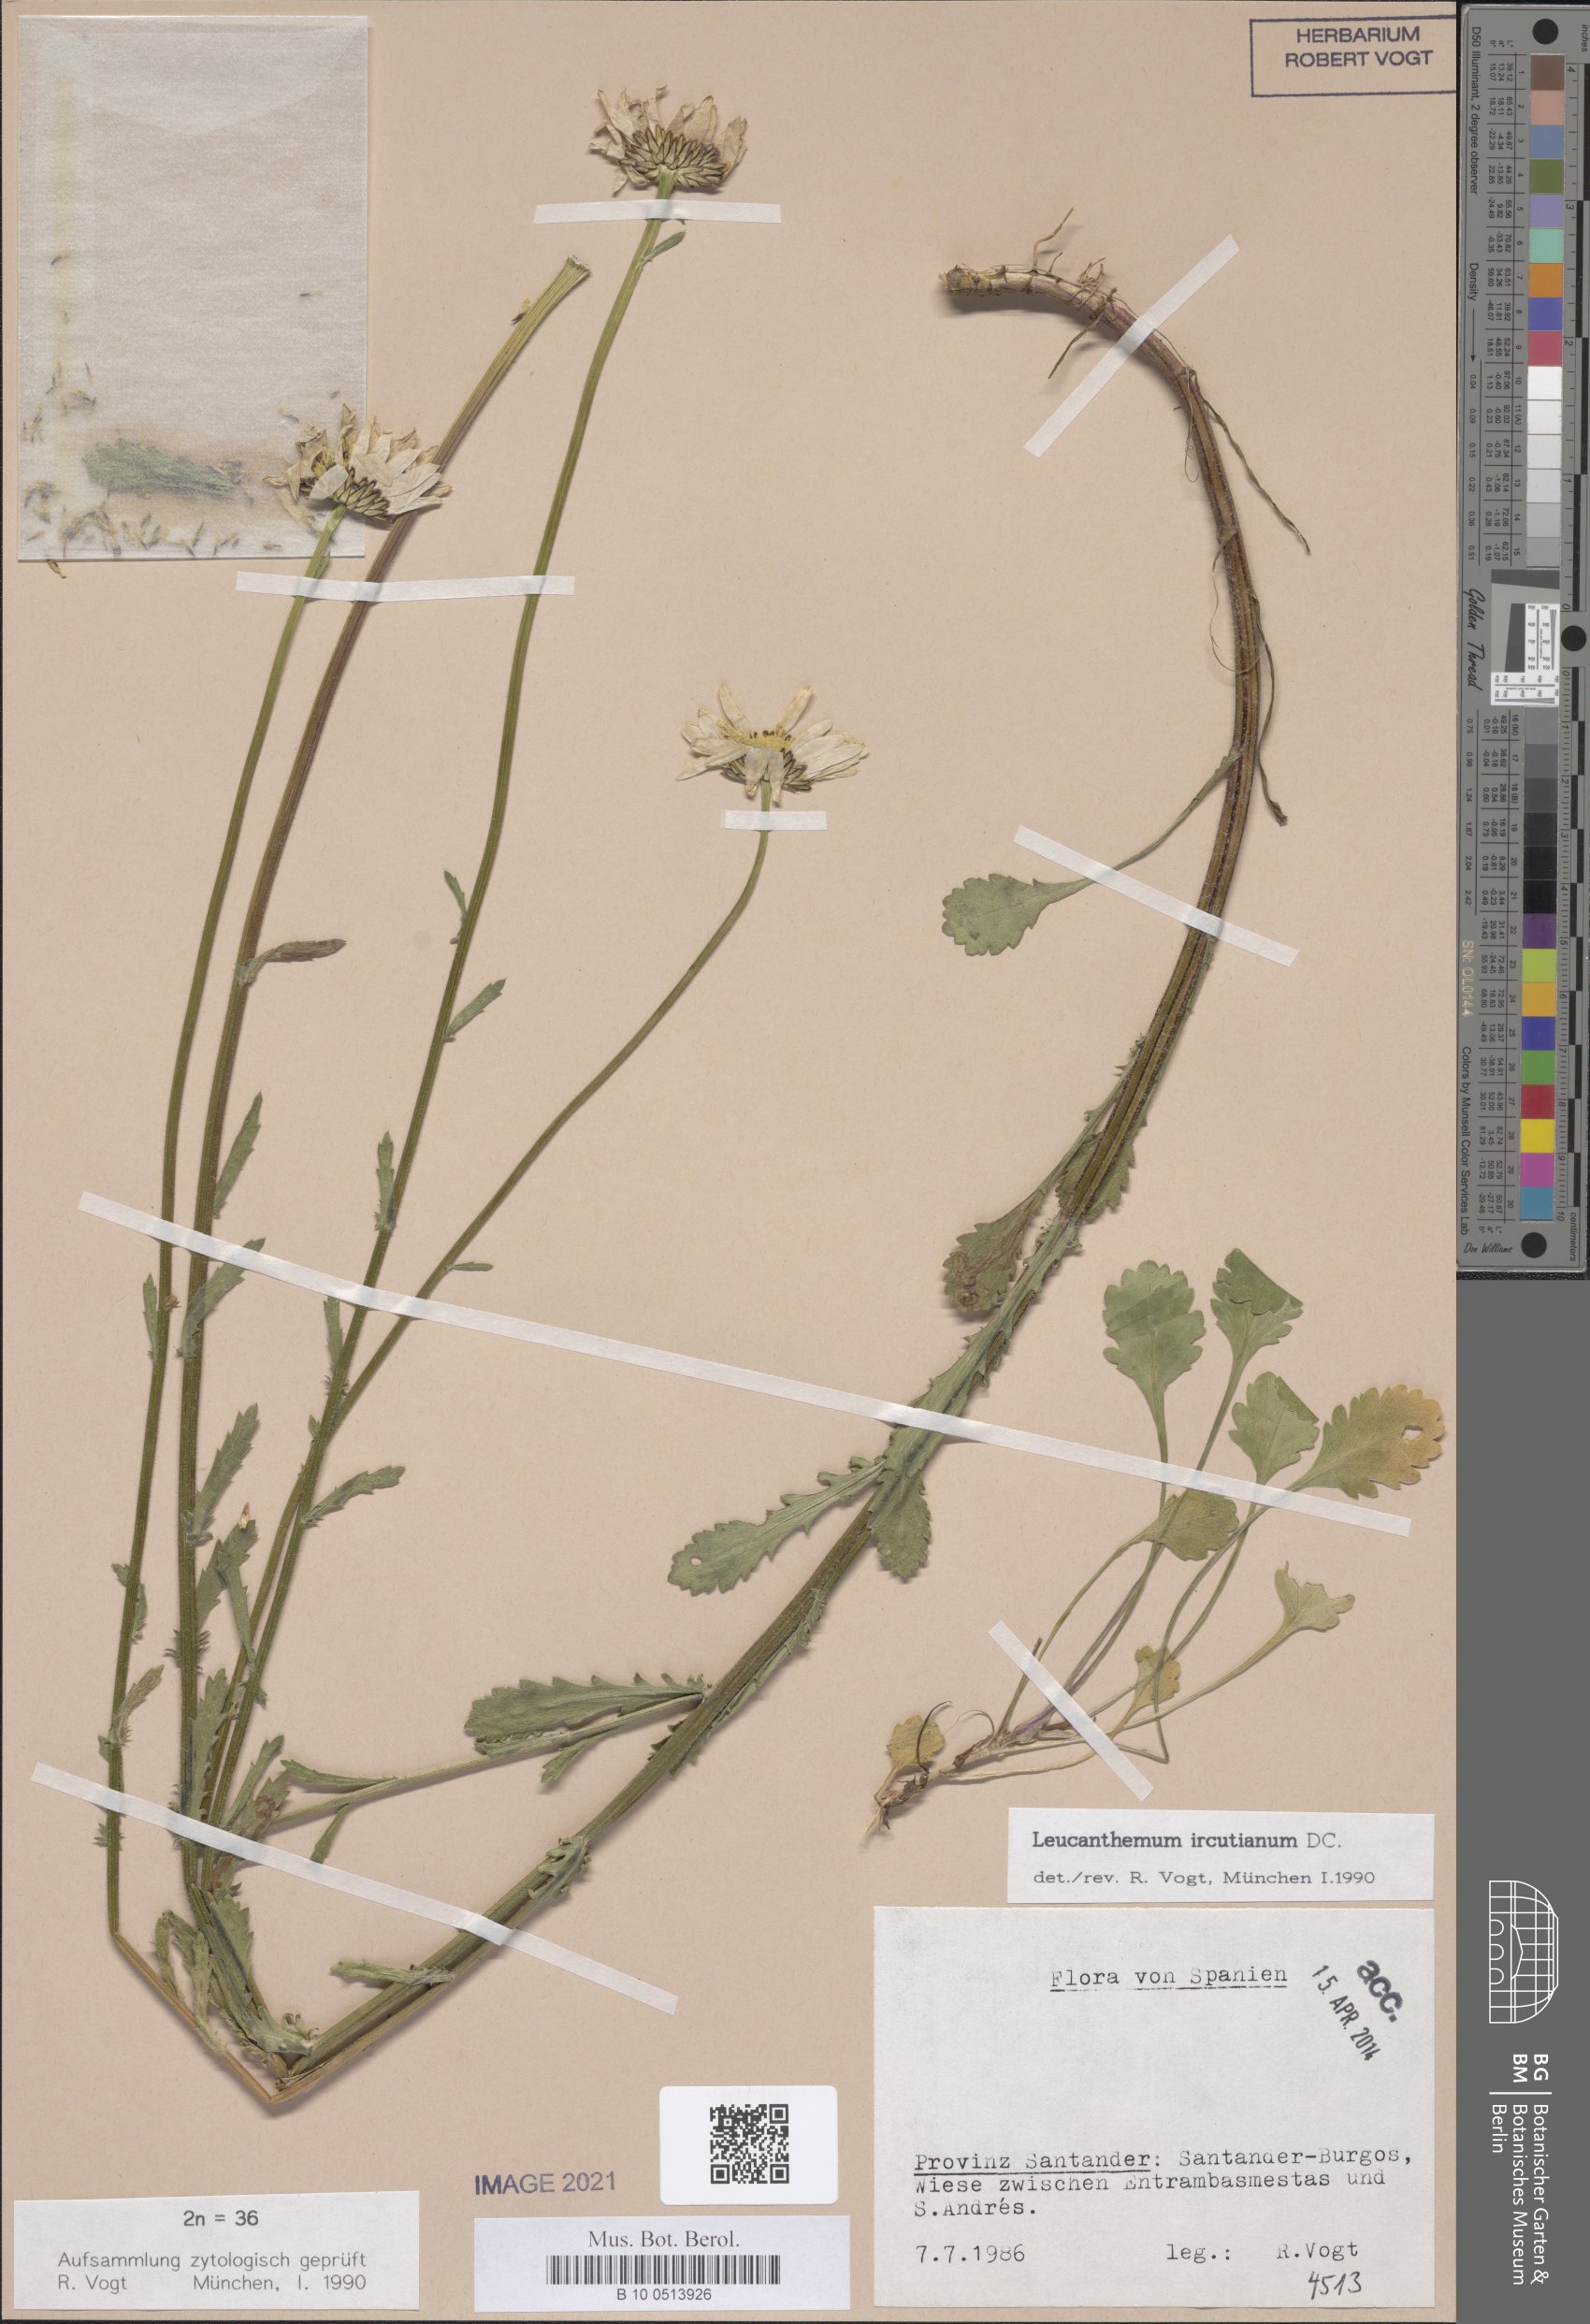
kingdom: Plantae
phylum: Tracheophyta
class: Magnoliopsida
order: Asterales
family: Asteraceae
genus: Leucanthemum
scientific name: Leucanthemum ircutianum
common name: Daisy
